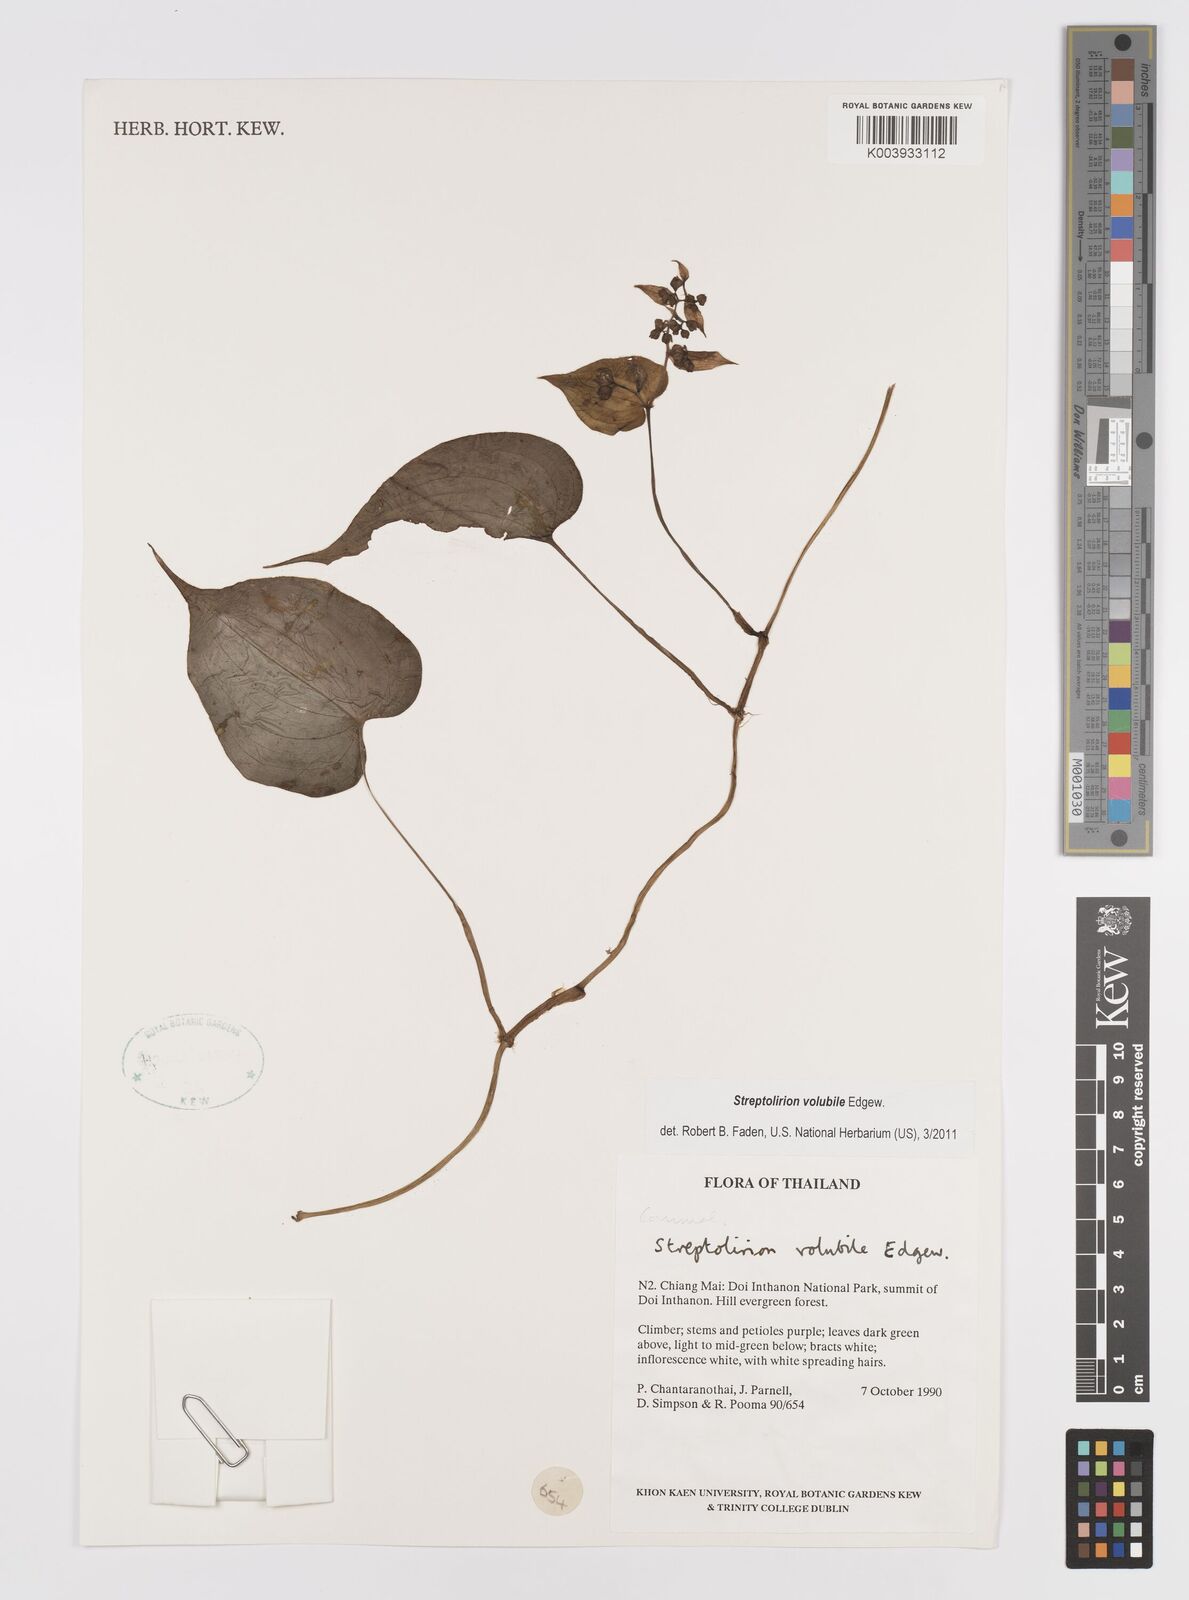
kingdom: Plantae
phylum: Tracheophyta
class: Liliopsida
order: Commelinales
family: Commelinaceae
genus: Streptolirion
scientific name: Streptolirion volubile
